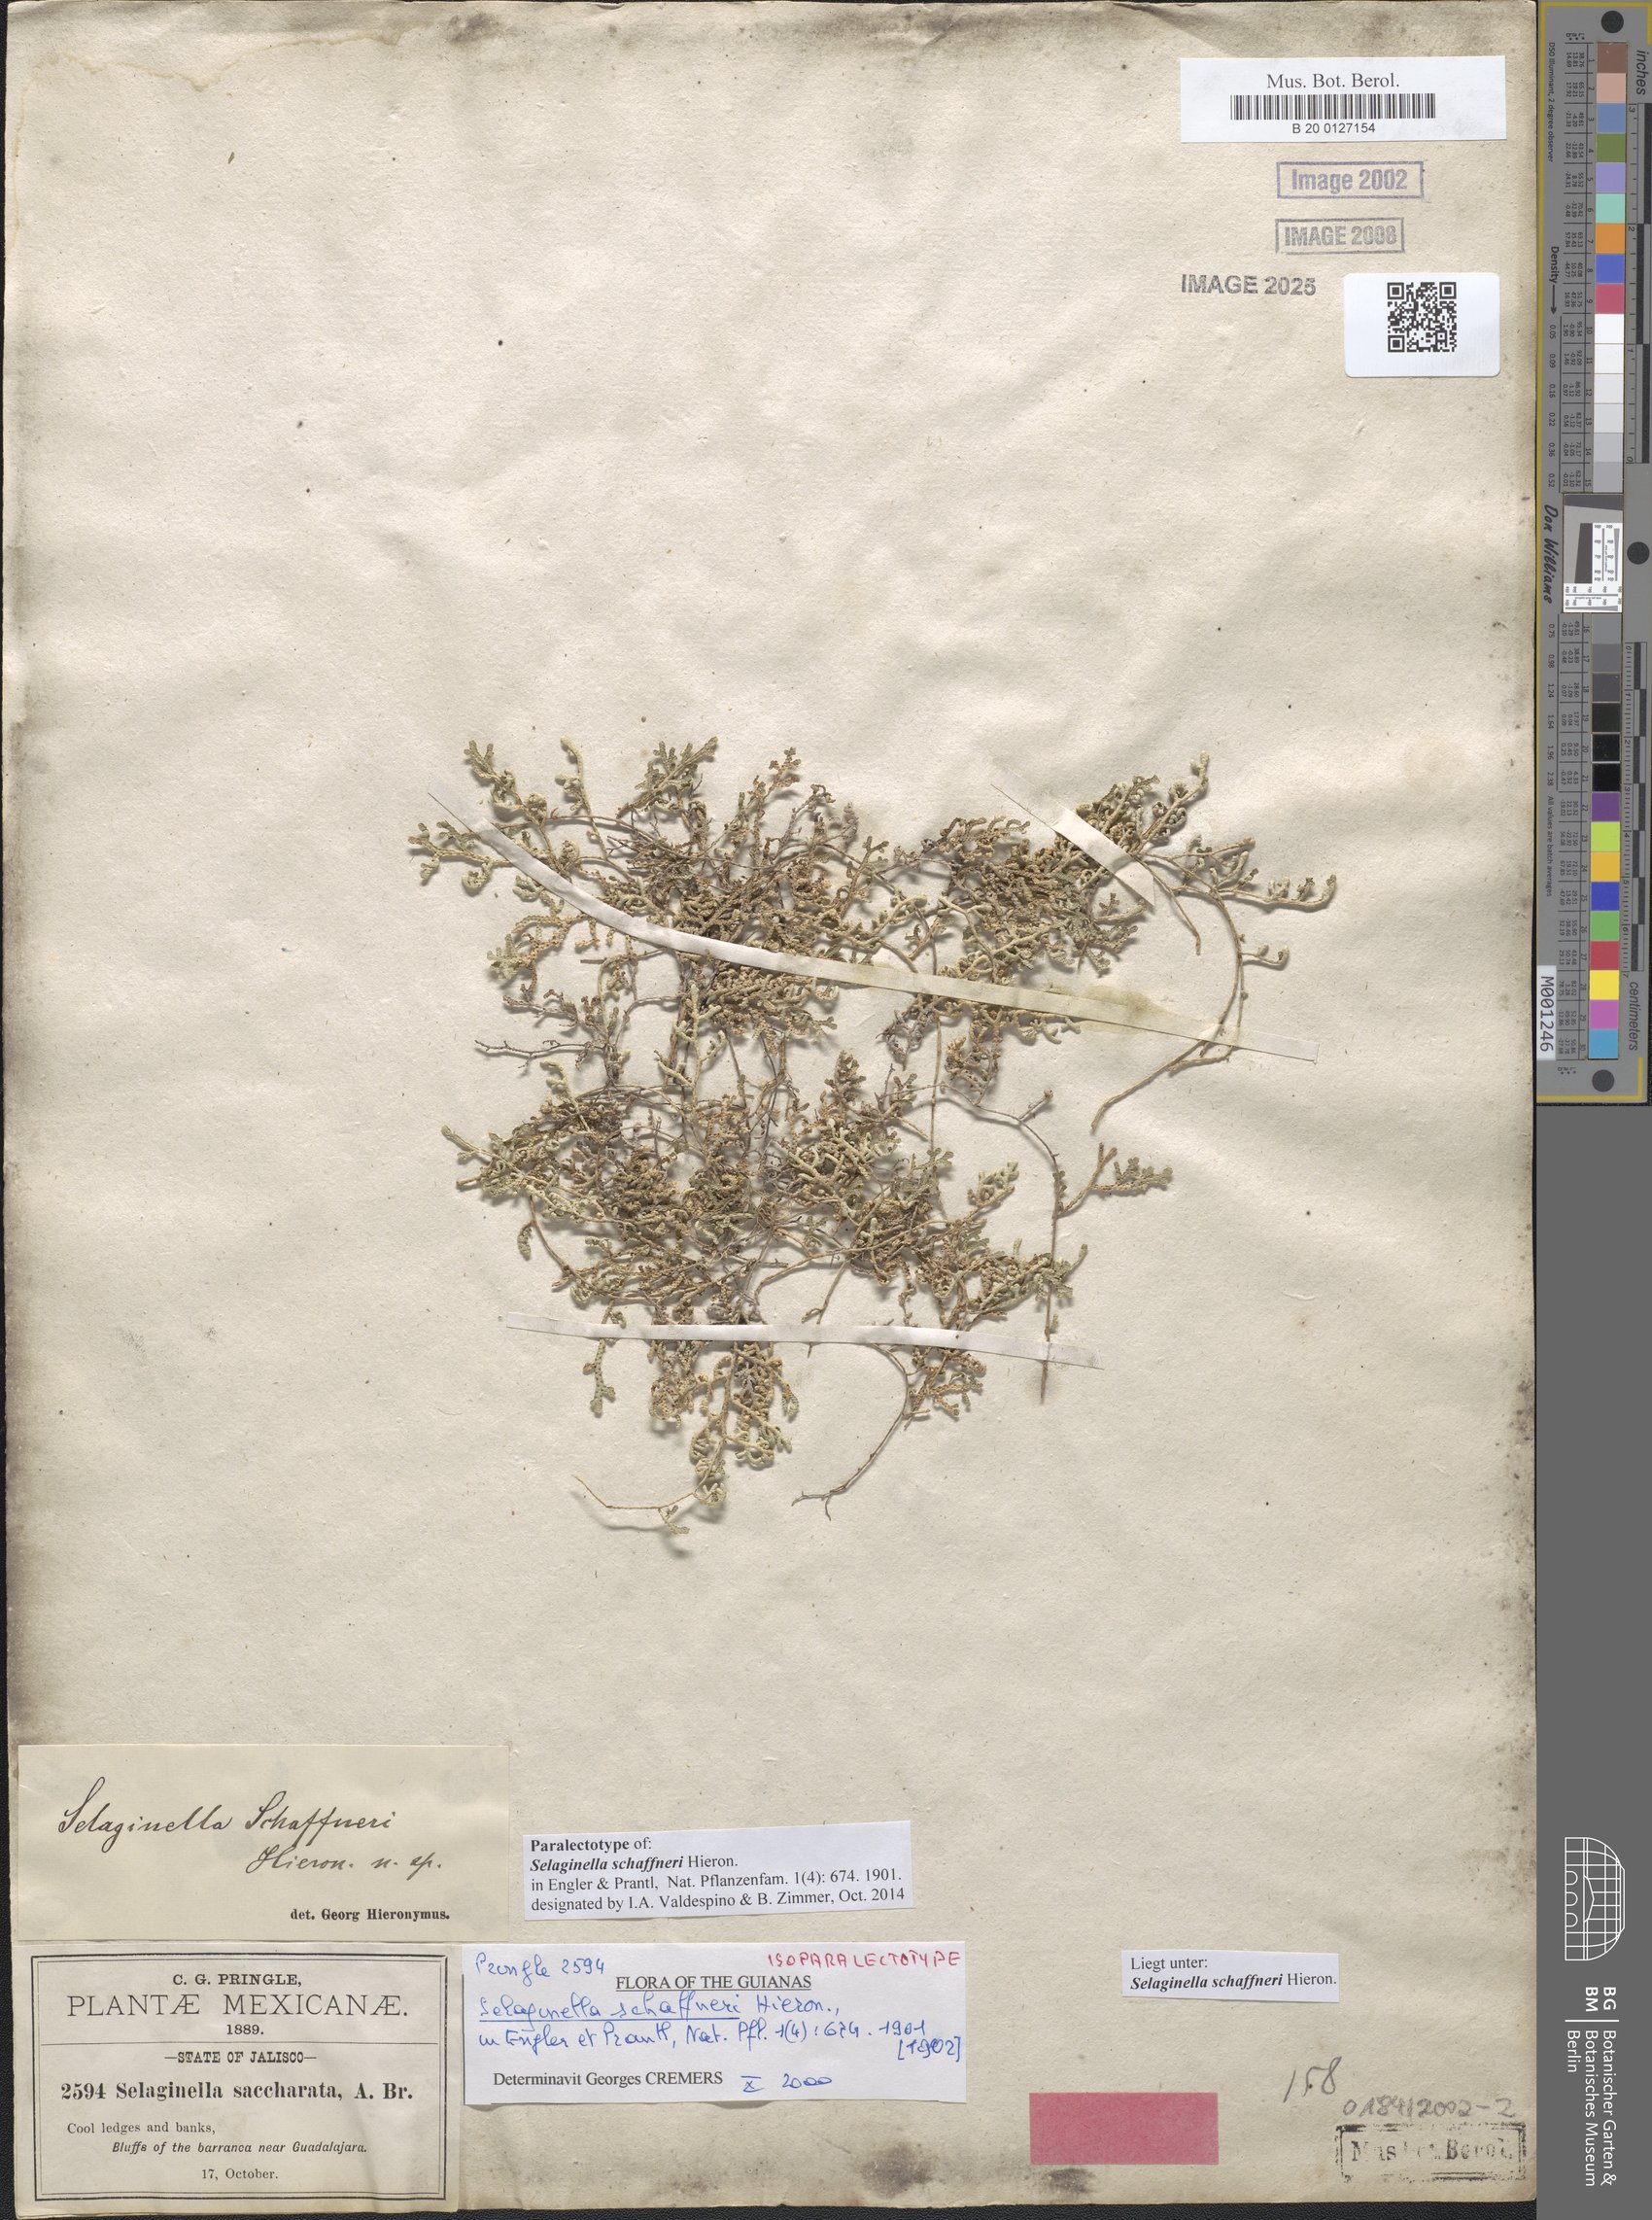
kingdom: Plantae
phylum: Tracheophyta
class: Lycopodiopsida
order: Selaginellales
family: Selaginellaceae
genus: Selaginella
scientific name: Selaginella schaffneri
